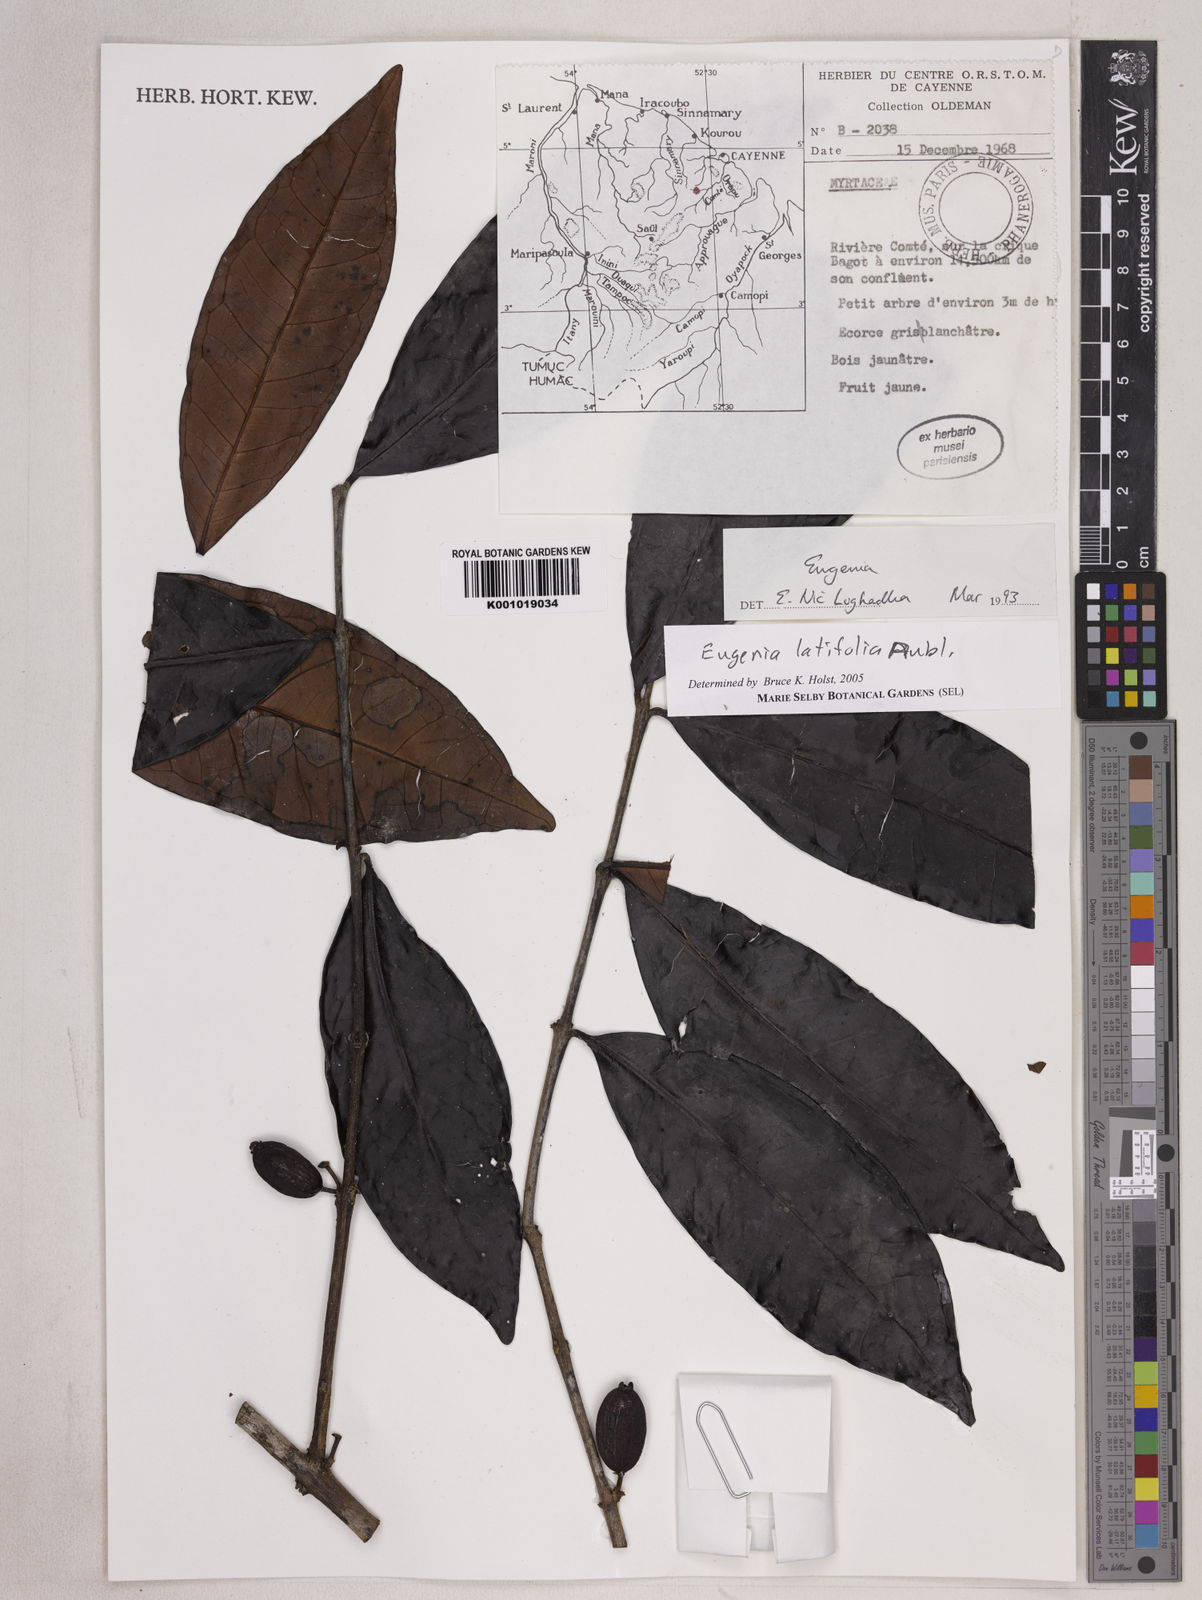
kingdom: Plantae
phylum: Tracheophyta
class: Magnoliopsida
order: Myrtales
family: Myrtaceae
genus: Eugenia
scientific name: Eugenia latifolia
